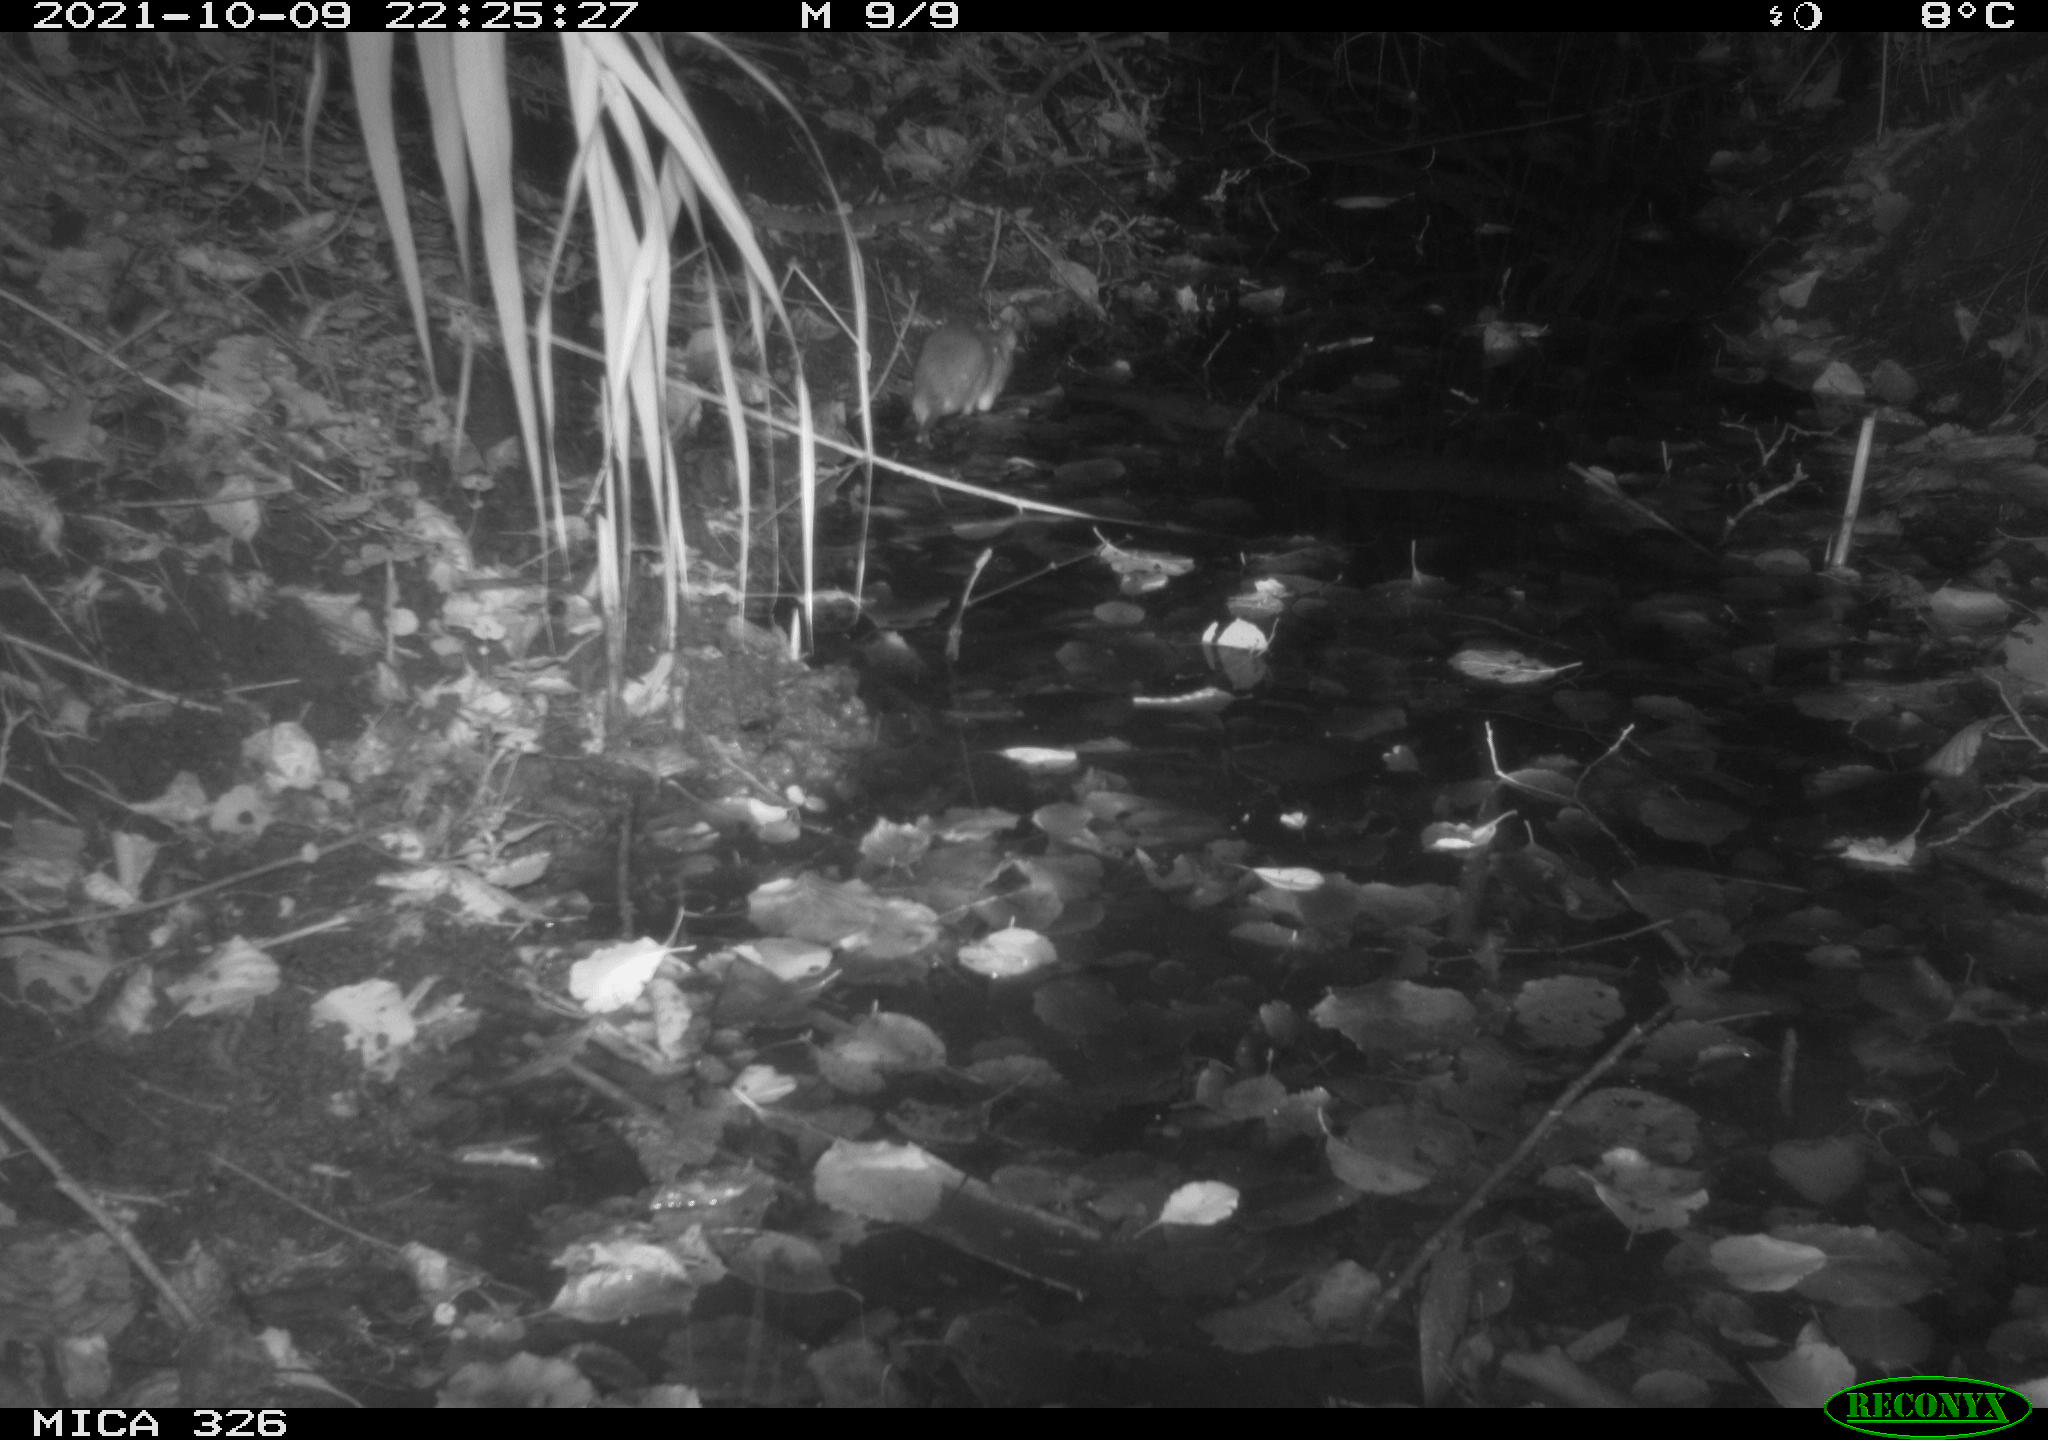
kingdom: Animalia
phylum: Chordata
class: Mammalia
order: Rodentia
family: Muridae
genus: Rattus
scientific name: Rattus norvegicus
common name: Brown rat
